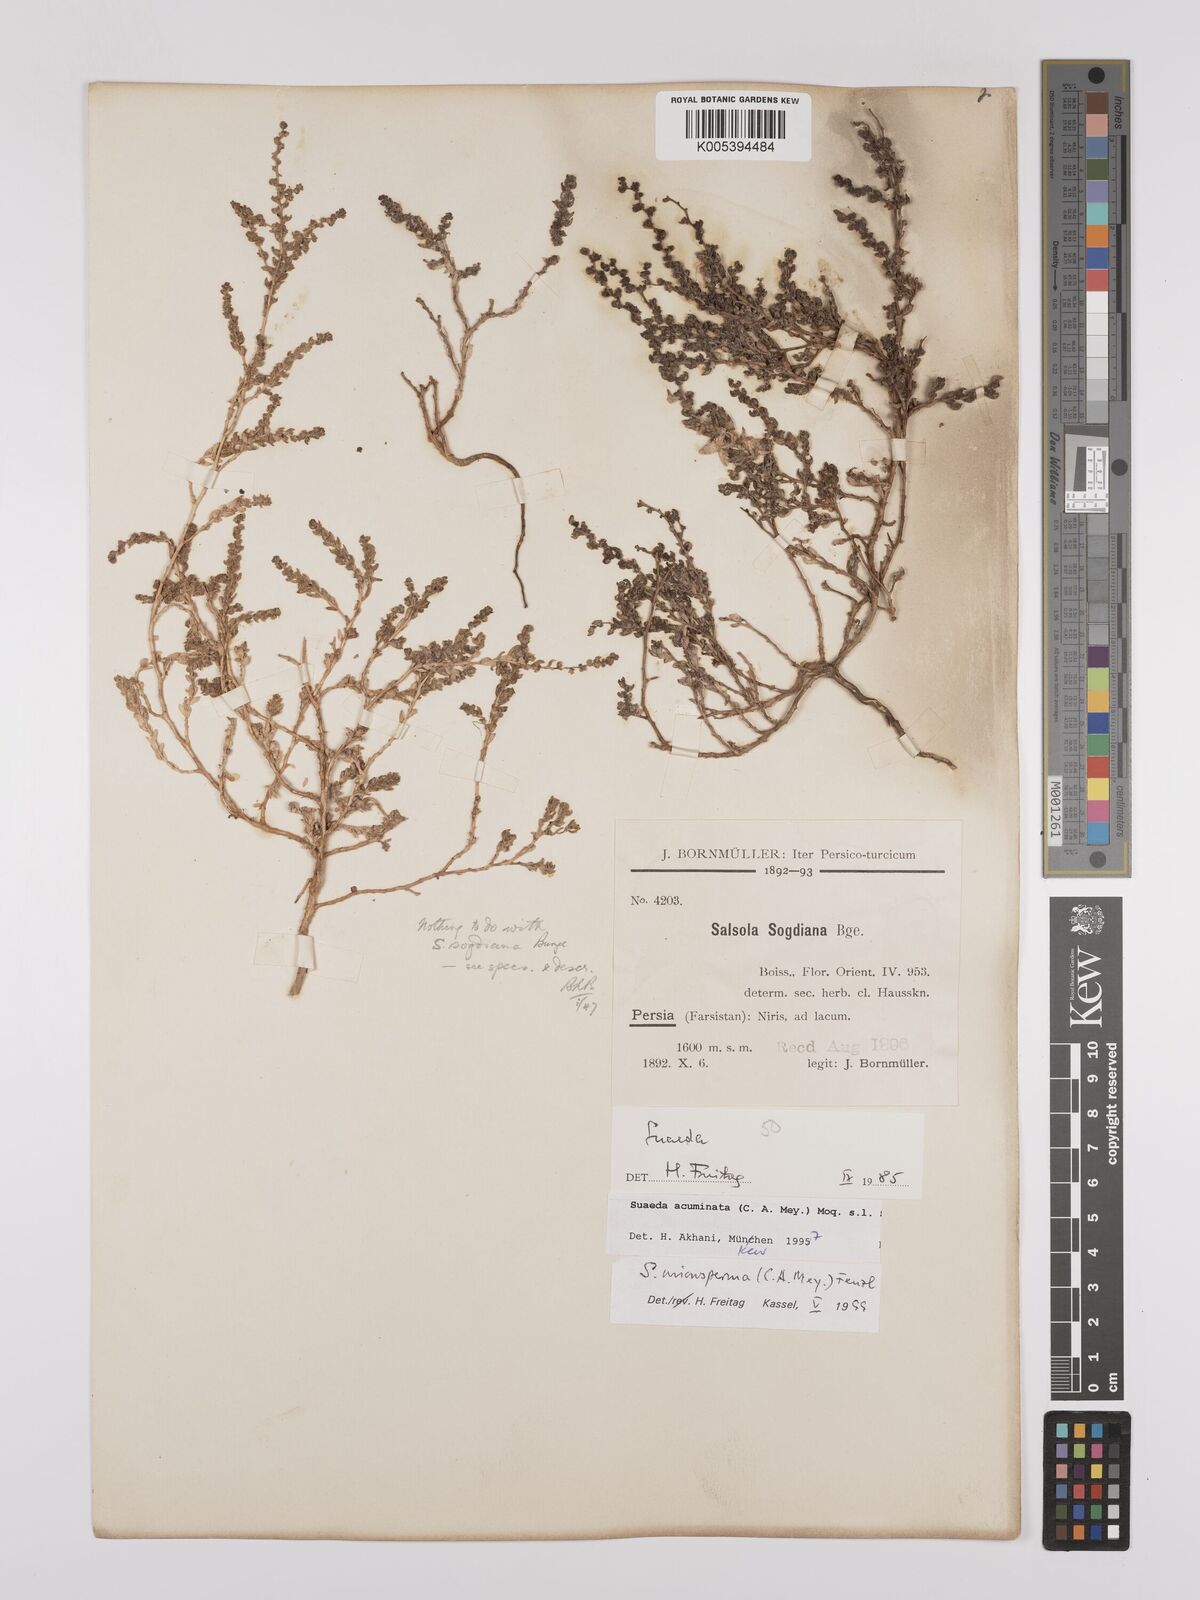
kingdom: Plantae
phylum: Tracheophyta
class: Magnoliopsida
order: Caryophyllales
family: Amaranthaceae
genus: Suaeda
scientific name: Suaeda acuminata
